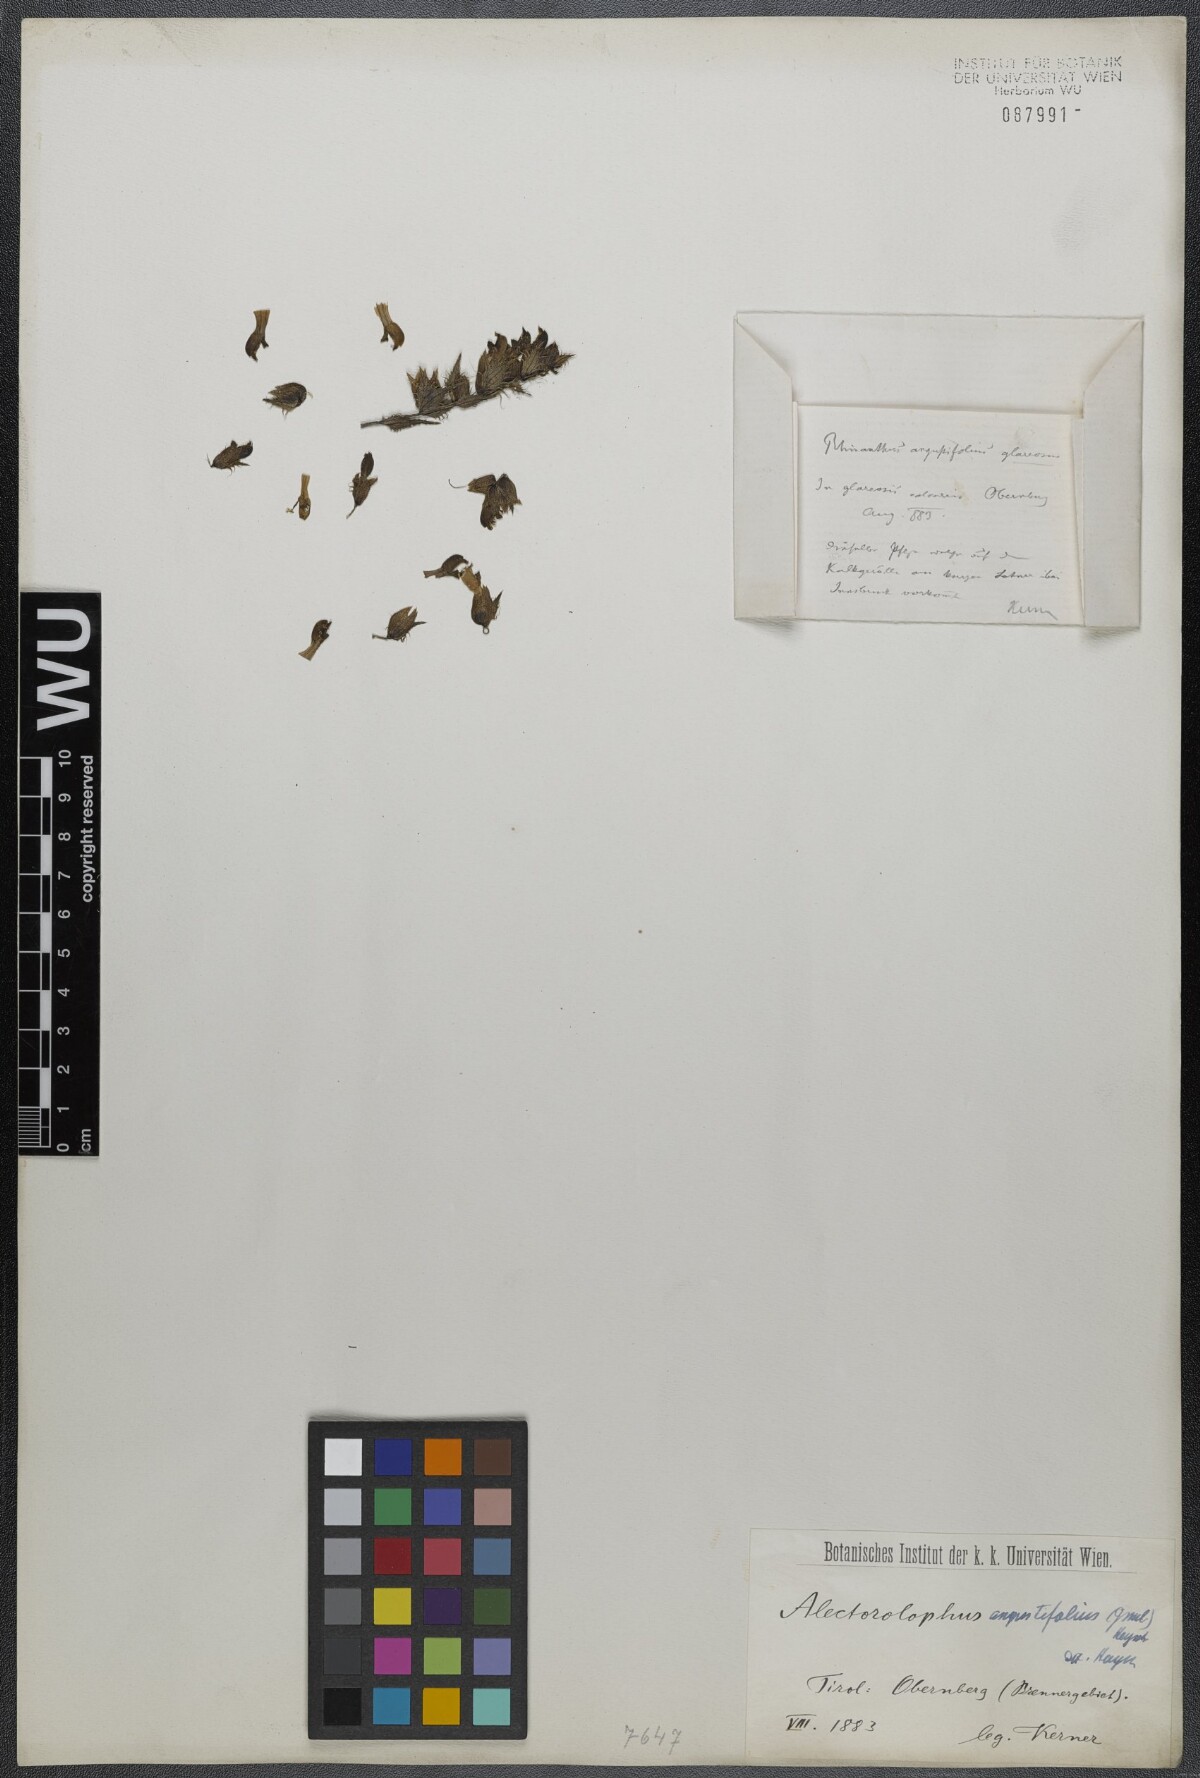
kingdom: Plantae
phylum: Tracheophyta
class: Magnoliopsida
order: Lamiales
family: Orobanchaceae
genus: Rhinanthus
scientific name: Rhinanthus
